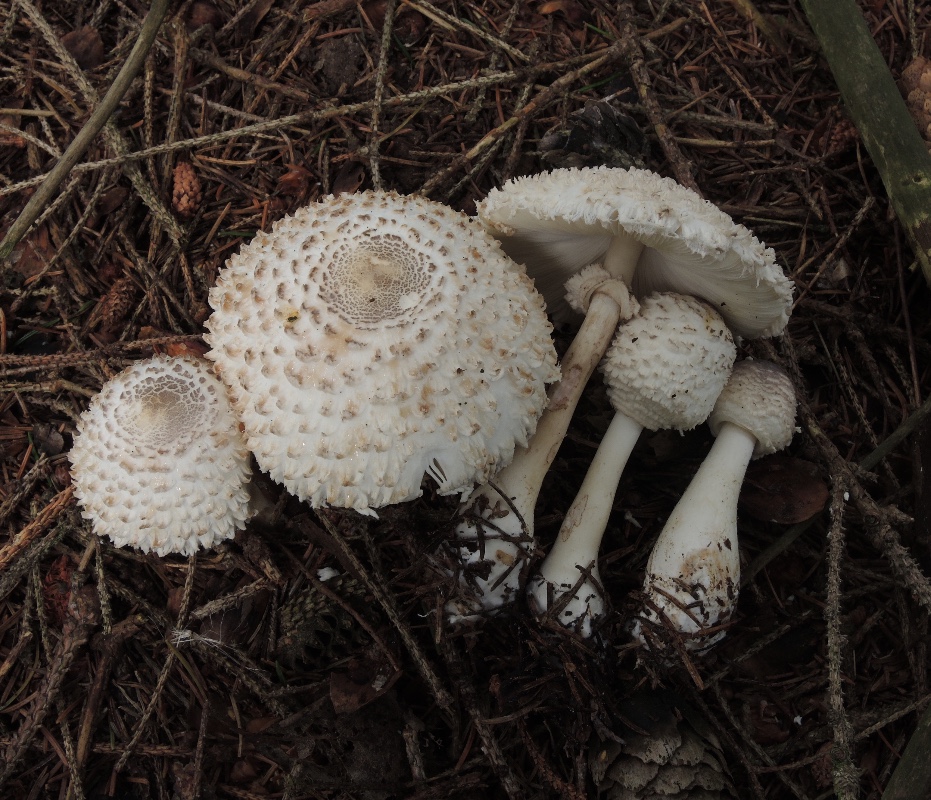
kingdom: Fungi
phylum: Basidiomycota
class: Agaricomycetes
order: Agaricales
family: Agaricaceae
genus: Leucoagaricus
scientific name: Leucoagaricus nympharum
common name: gran-silkehat
